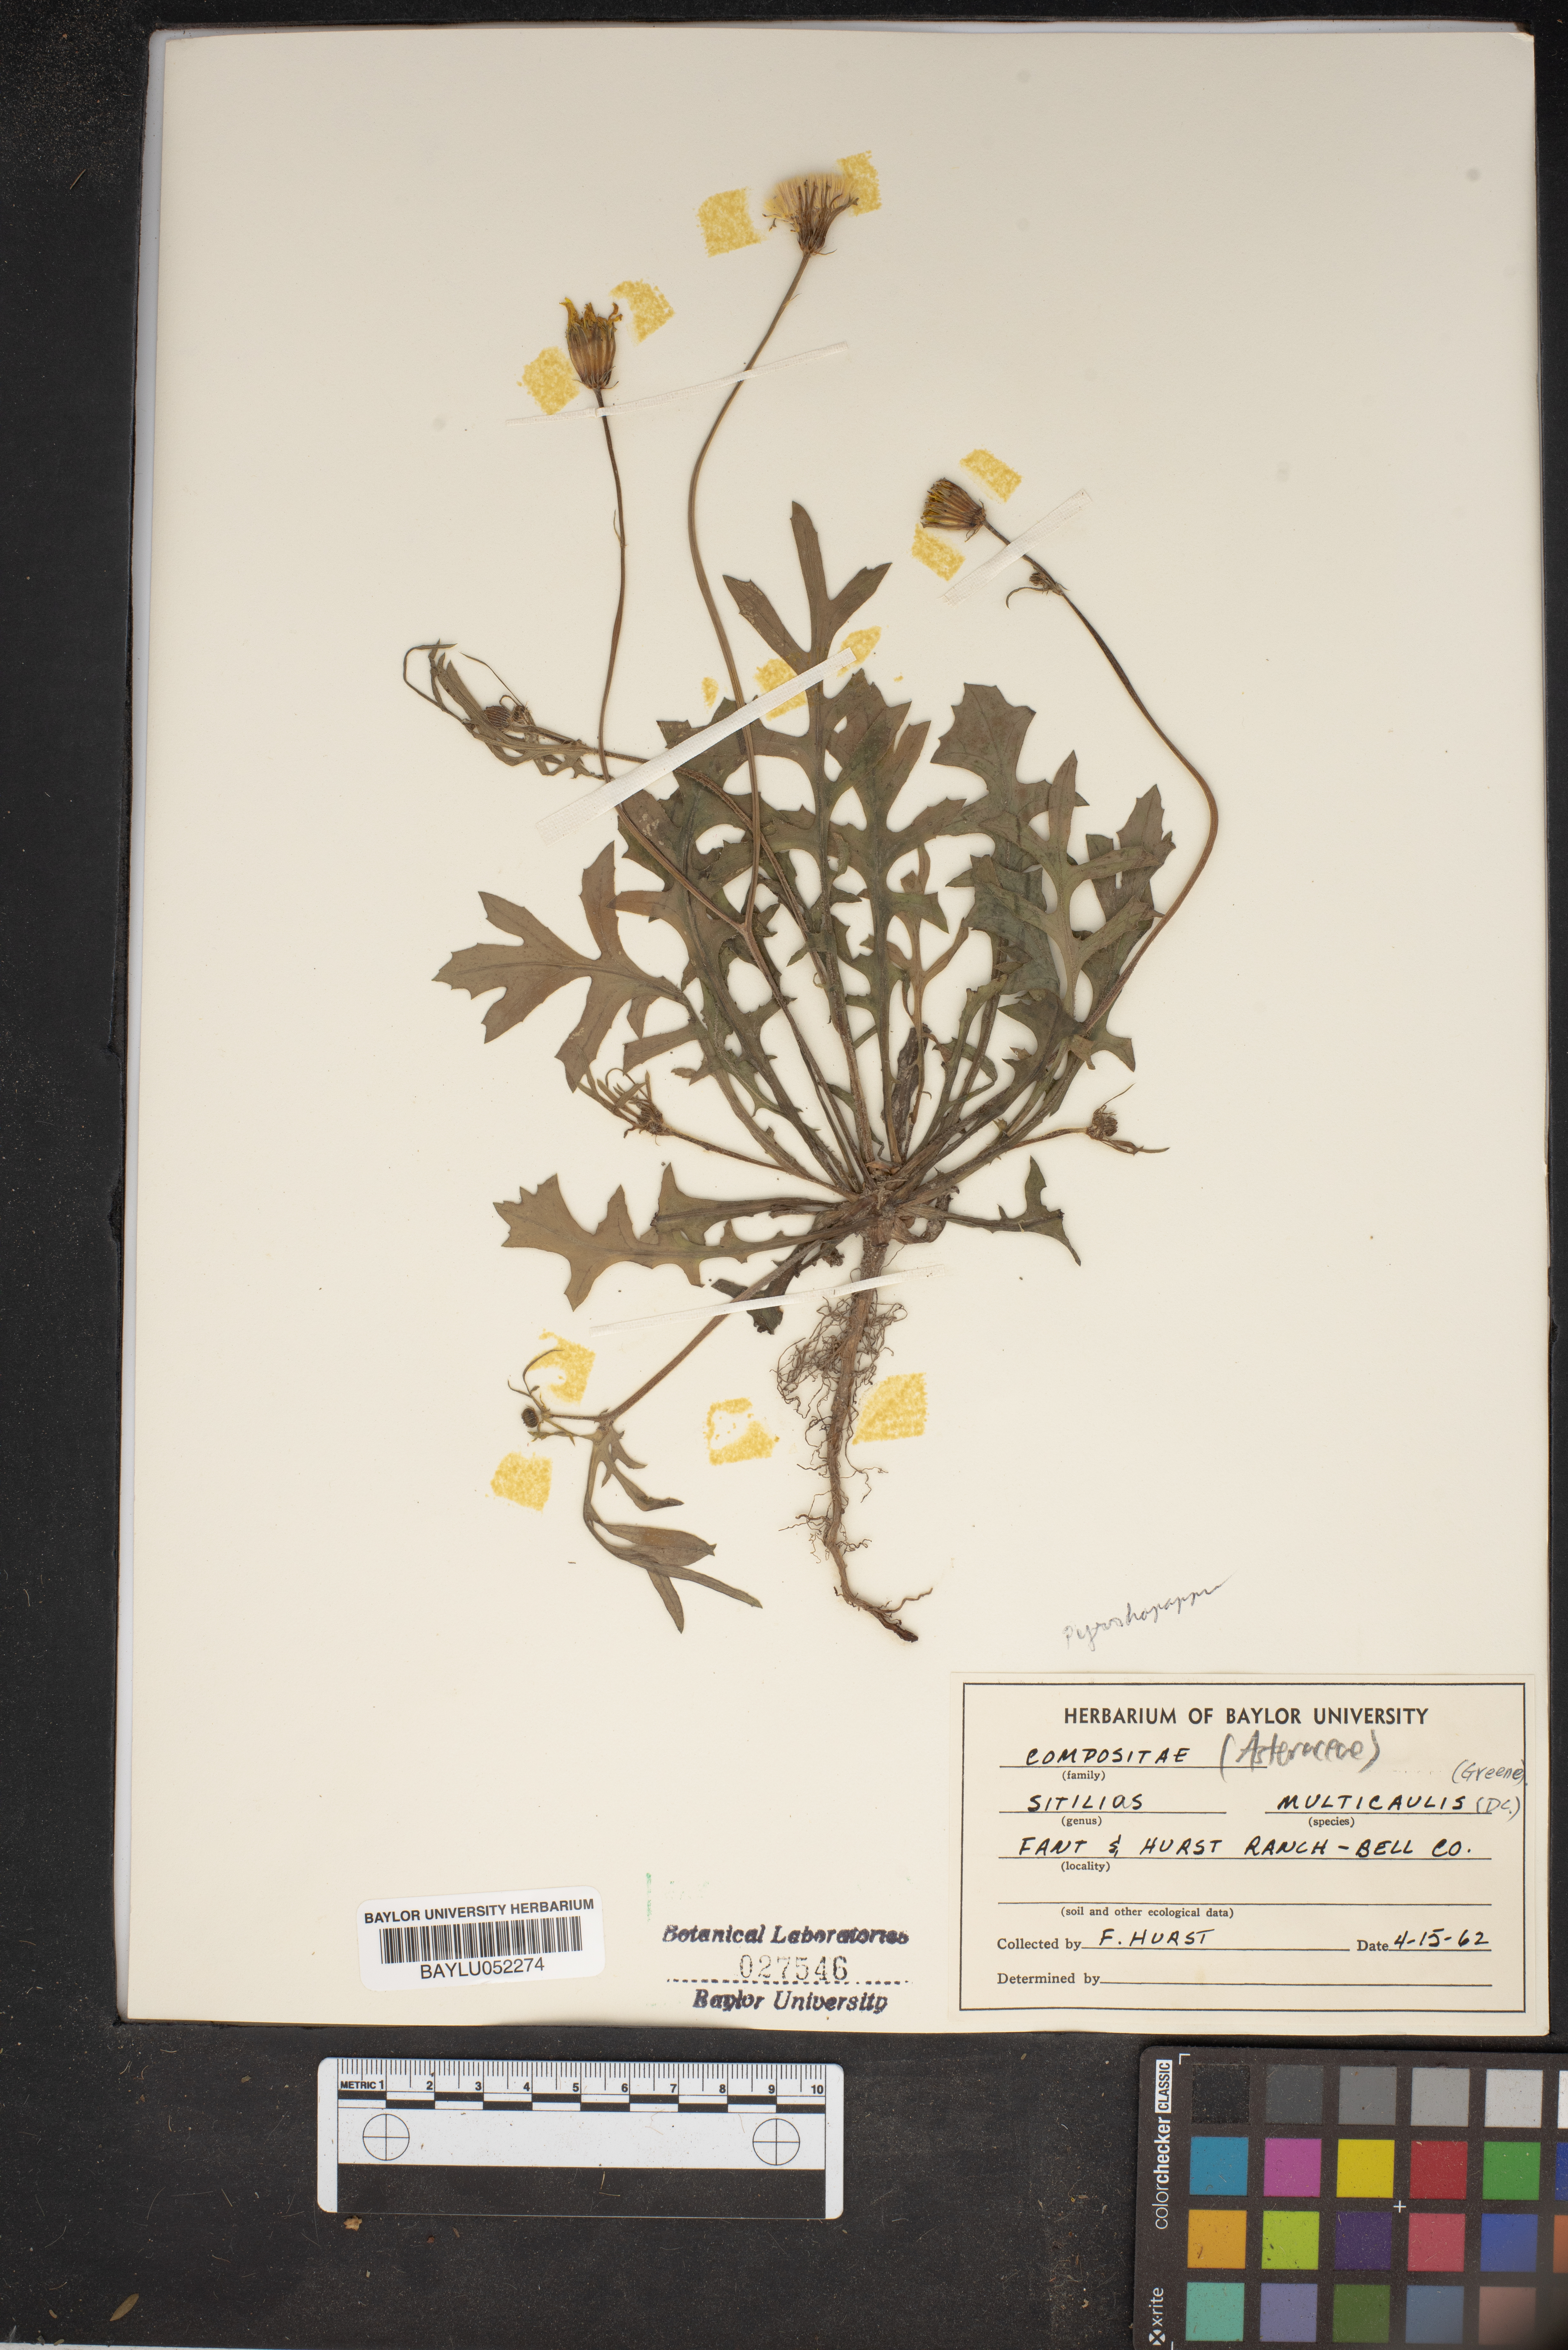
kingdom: Plantae
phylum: Tracheophyta
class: Magnoliopsida
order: Asterales
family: Asteraceae
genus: Pyrrhopappus
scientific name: Pyrrhopappus pauciflorus
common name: Texas false dandelion
